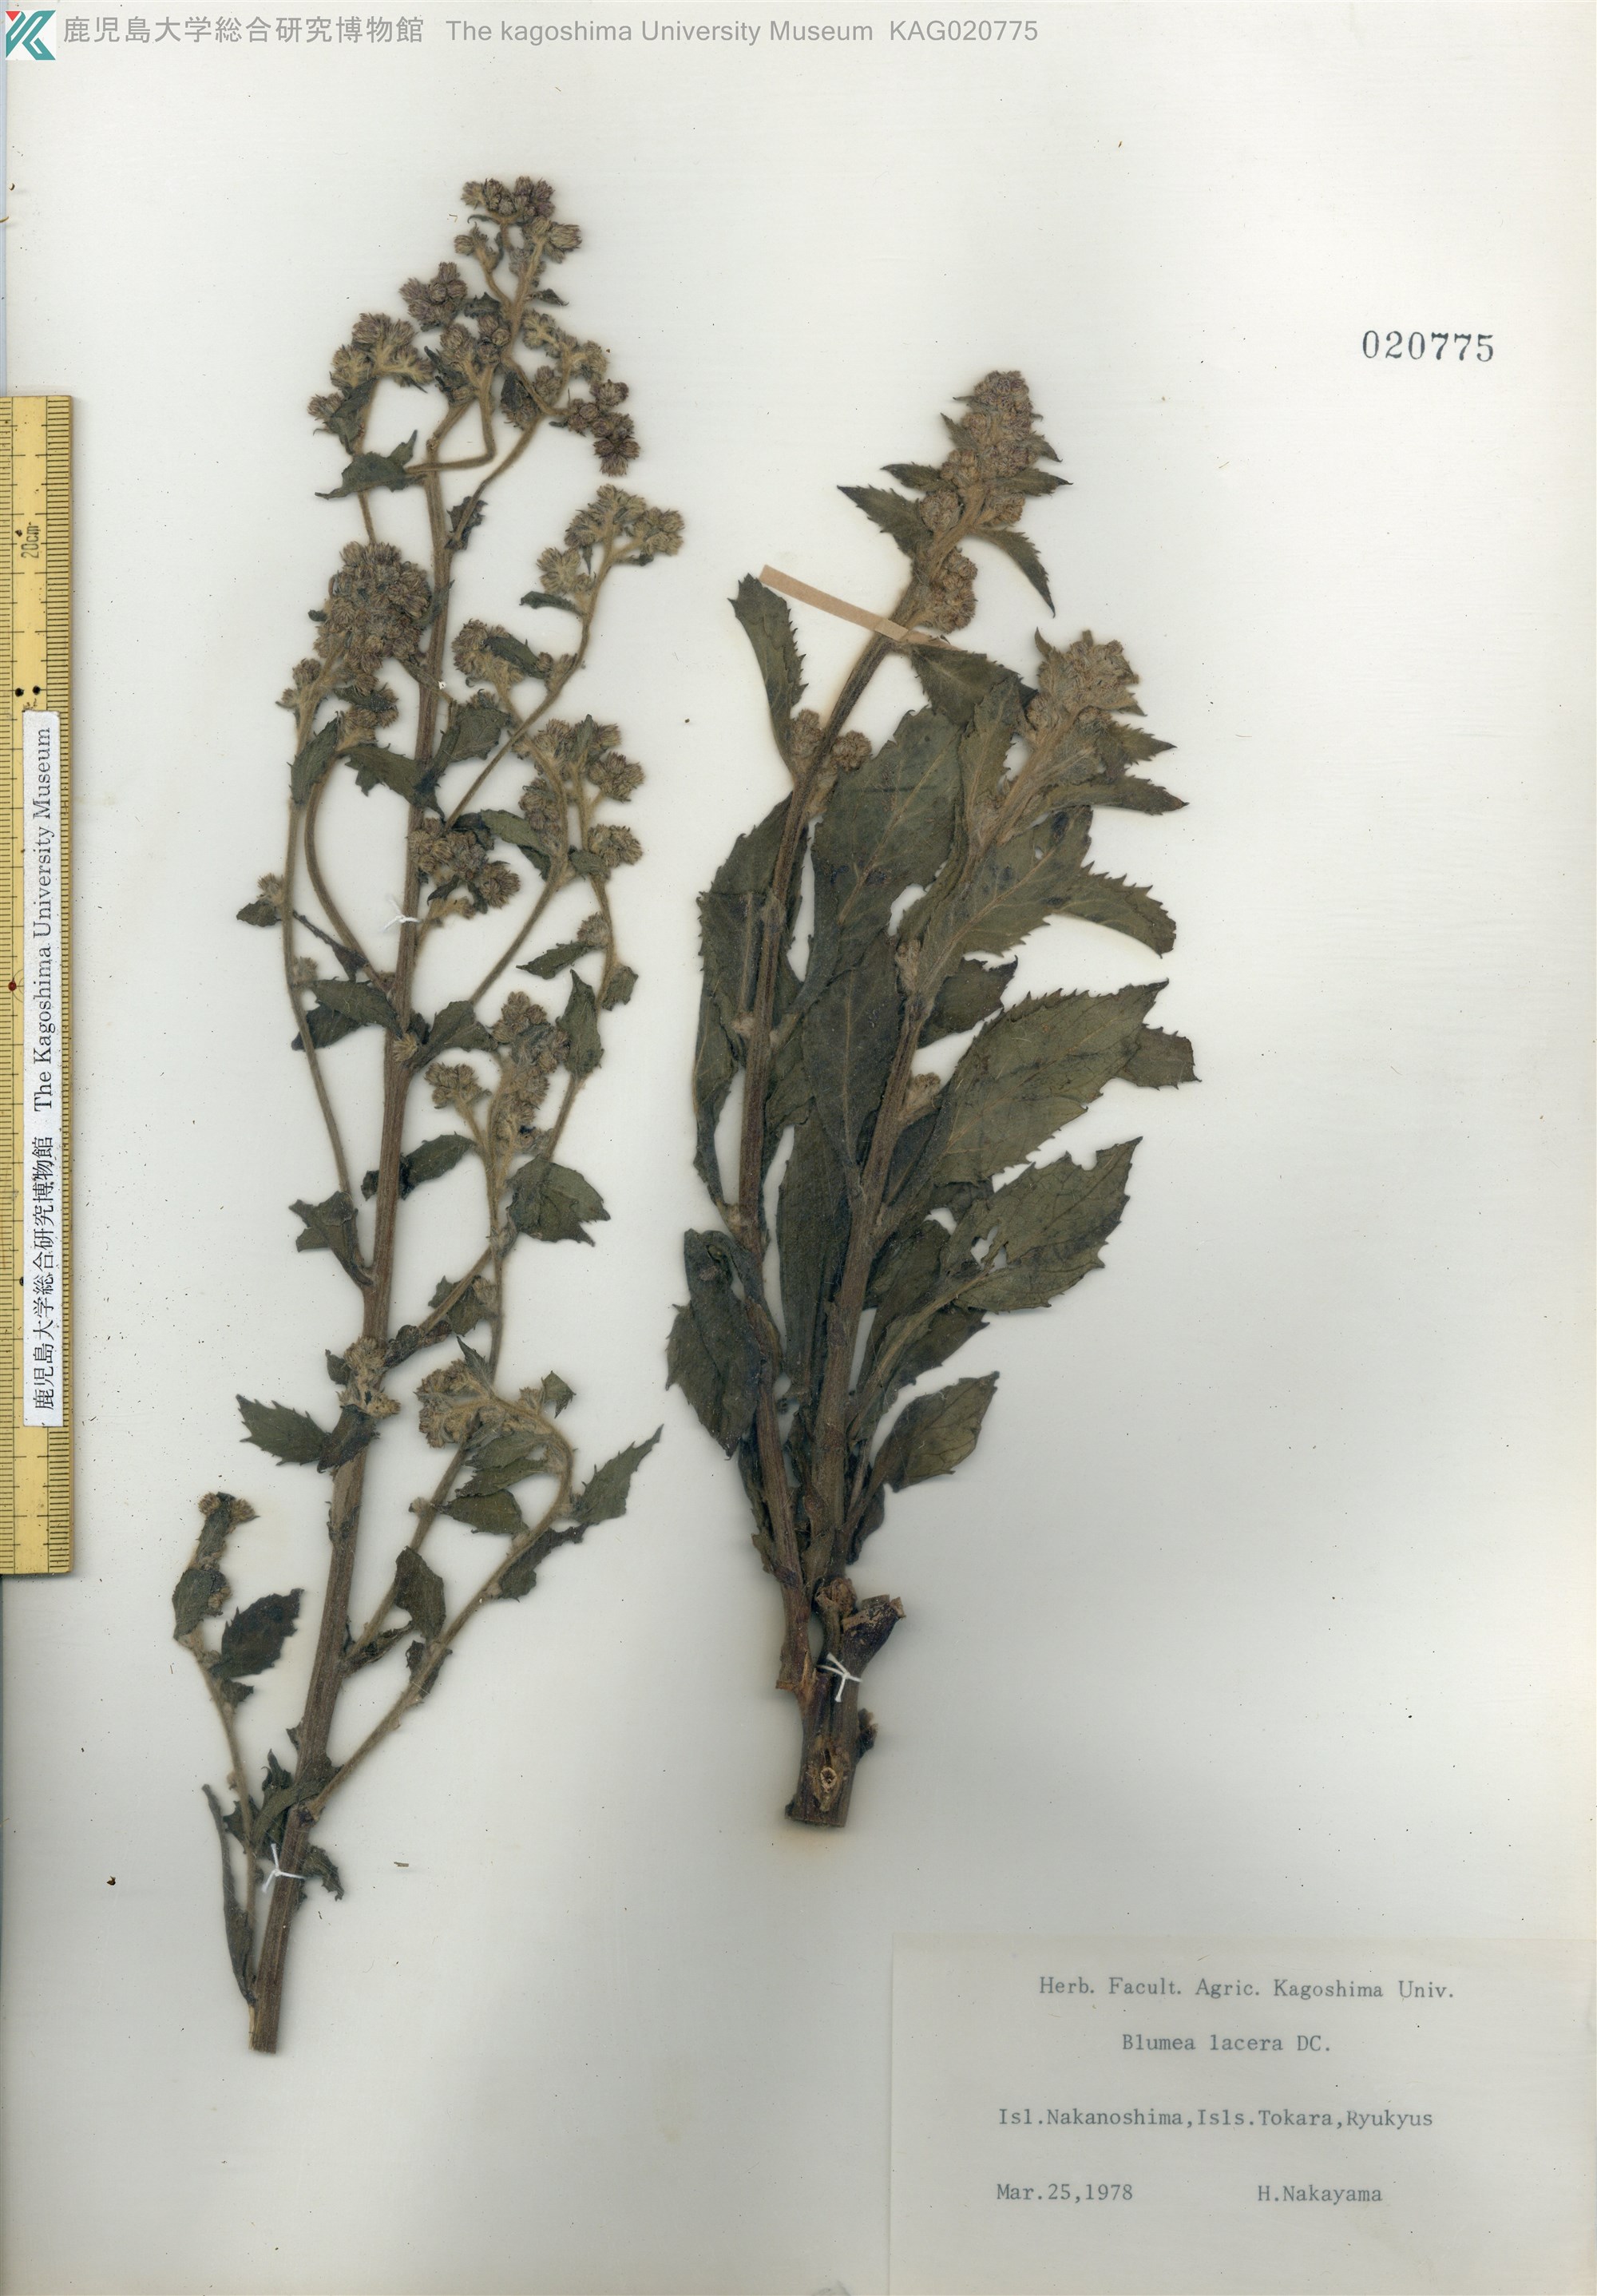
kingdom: Plantae
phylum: Tracheophyta
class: Magnoliopsida
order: Asterales
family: Asteraceae
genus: Blumea
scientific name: Blumea lacera
